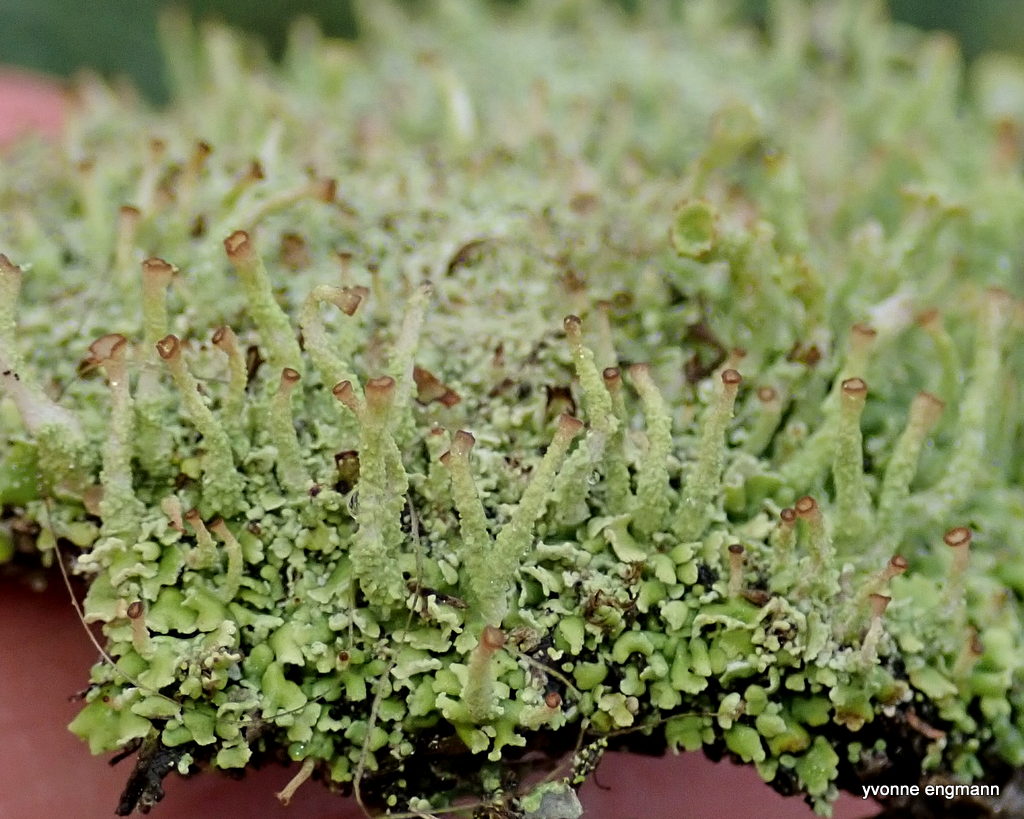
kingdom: Fungi
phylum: Ascomycota
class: Lecanoromycetes
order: Lecanorales
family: Cladoniaceae
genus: Cladonia
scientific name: Cladonia ochrochlora
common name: stød-bægerlav
